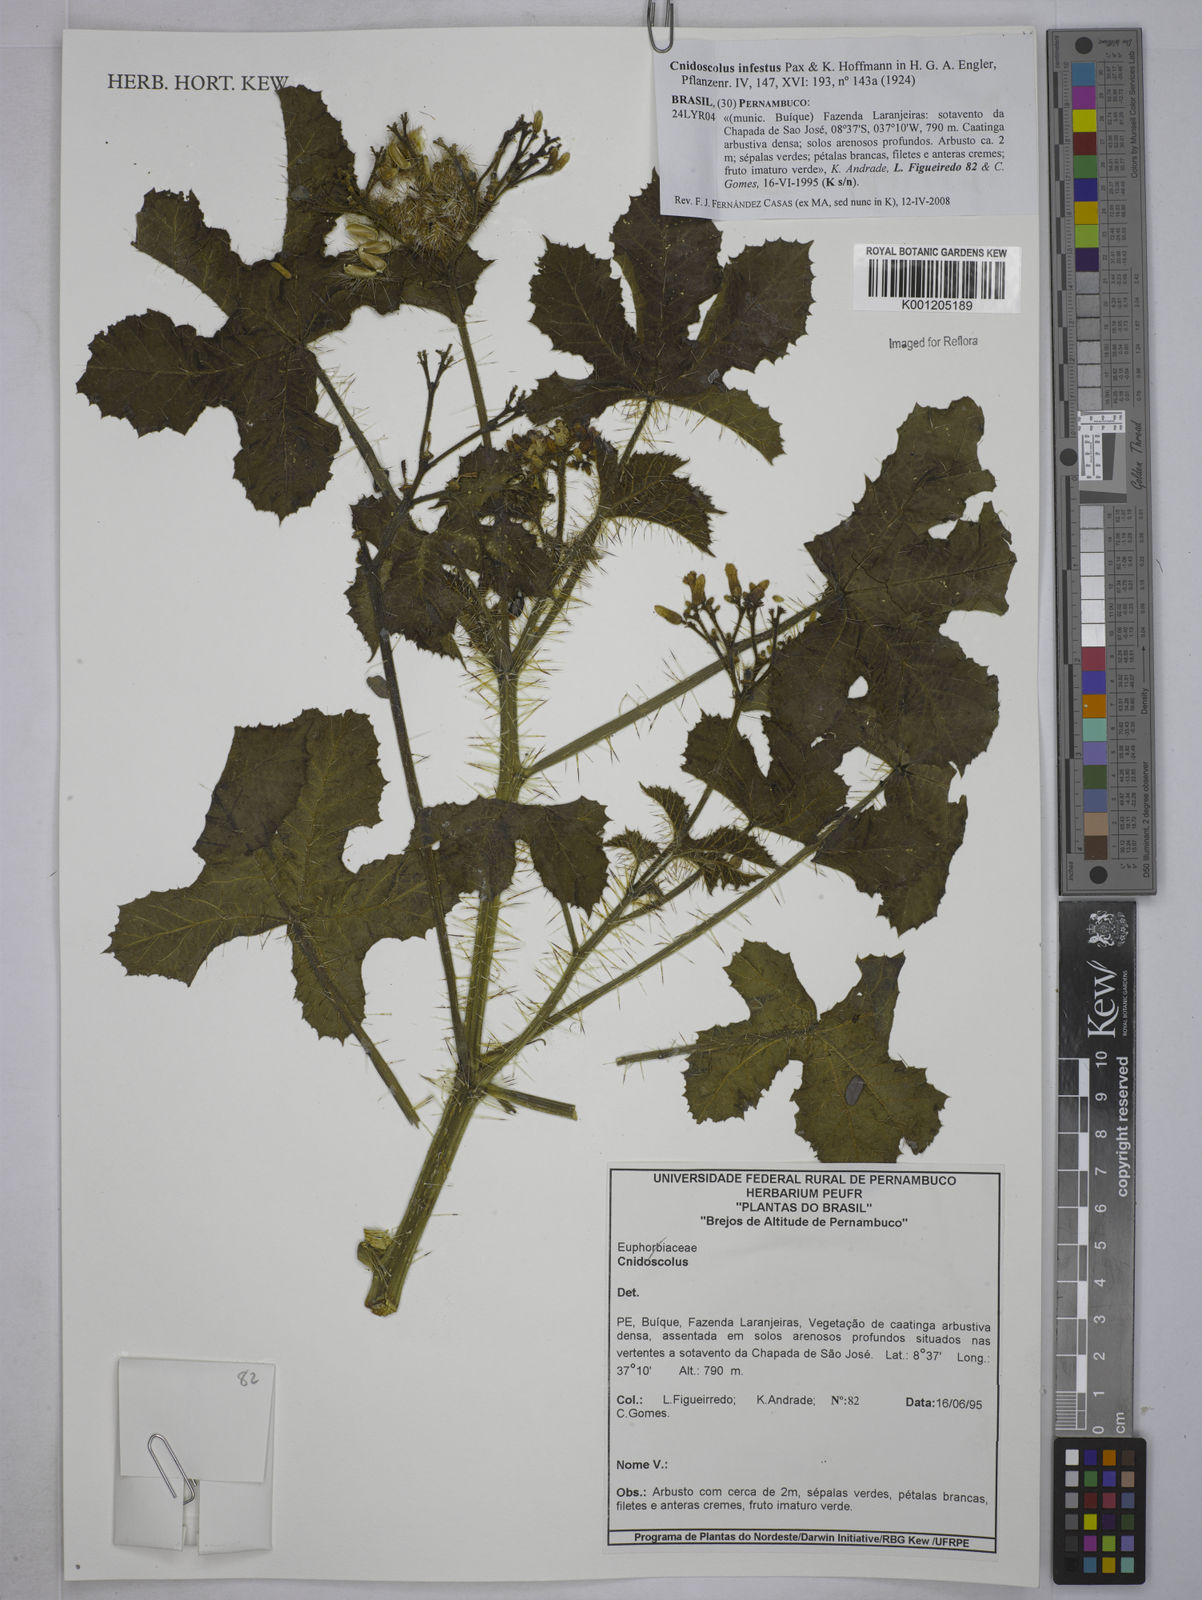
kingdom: Plantae
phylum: Tracheophyta
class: Magnoliopsida
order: Malpighiales
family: Euphorbiaceae
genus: Cnidoscolus
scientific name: Cnidoscolus infestus
